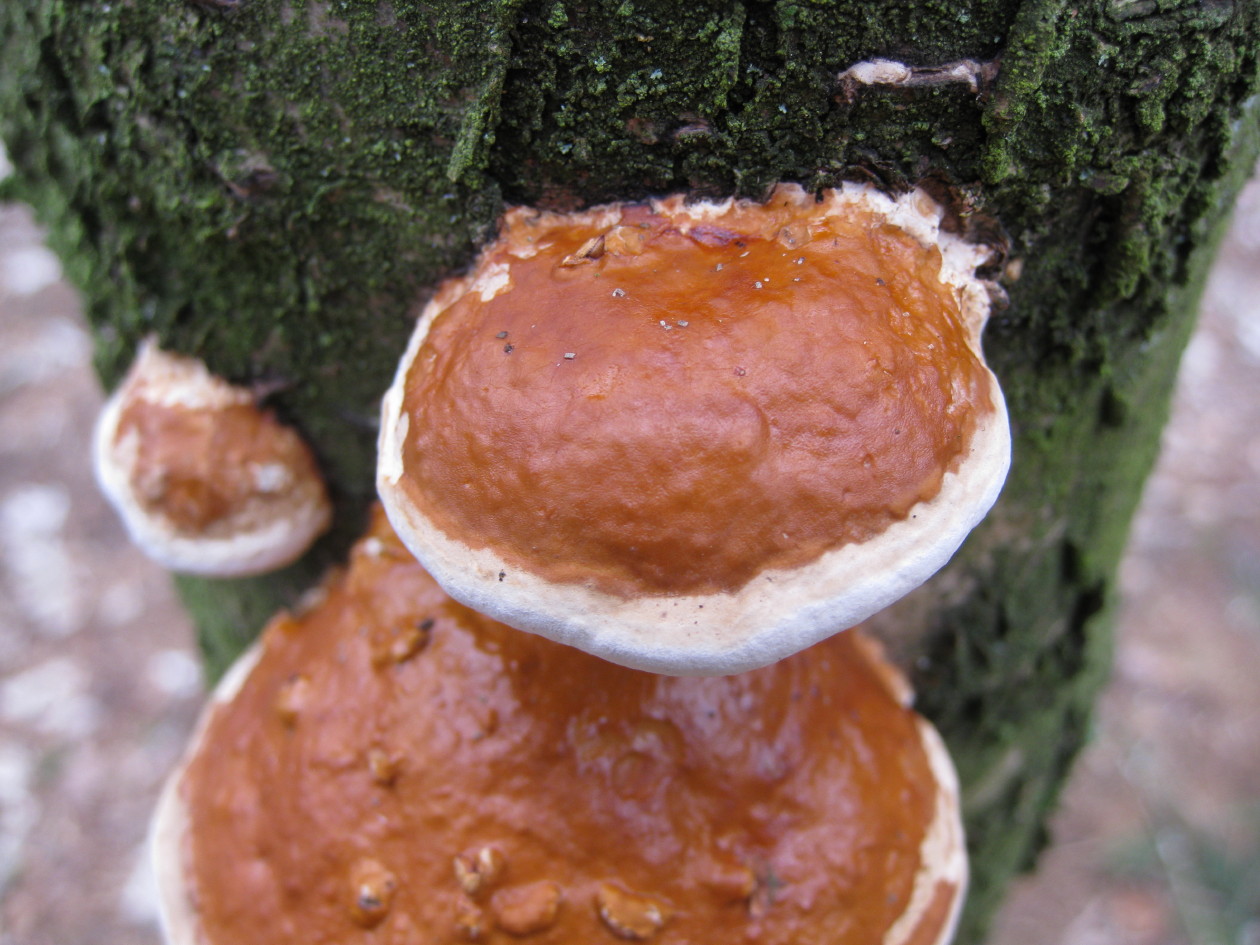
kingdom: Fungi
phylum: Basidiomycota
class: Agaricomycetes
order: Polyporales
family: Fomitopsidaceae
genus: Fomitopsis
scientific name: Fomitopsis pinicola
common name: randbæltet hovporesvamp
